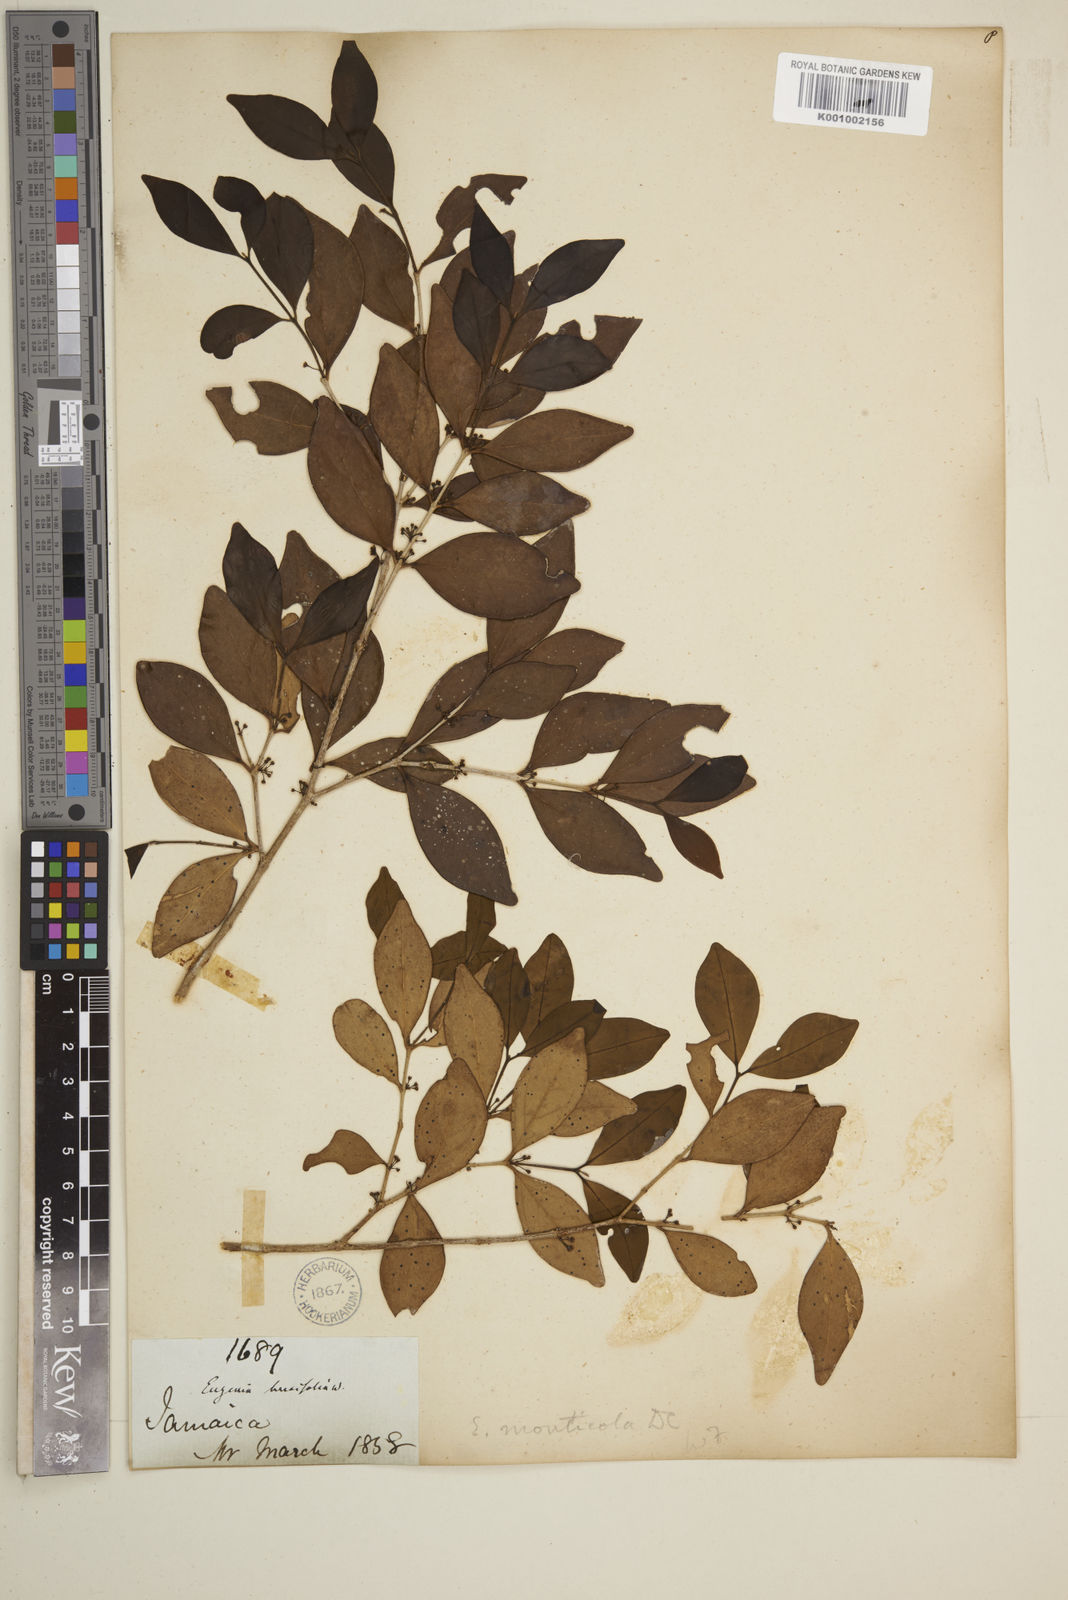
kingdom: Plantae
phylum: Tracheophyta
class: Magnoliopsida
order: Myrtales
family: Myrtaceae
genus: Eugenia
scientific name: Eugenia monticola
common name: Birds berry
